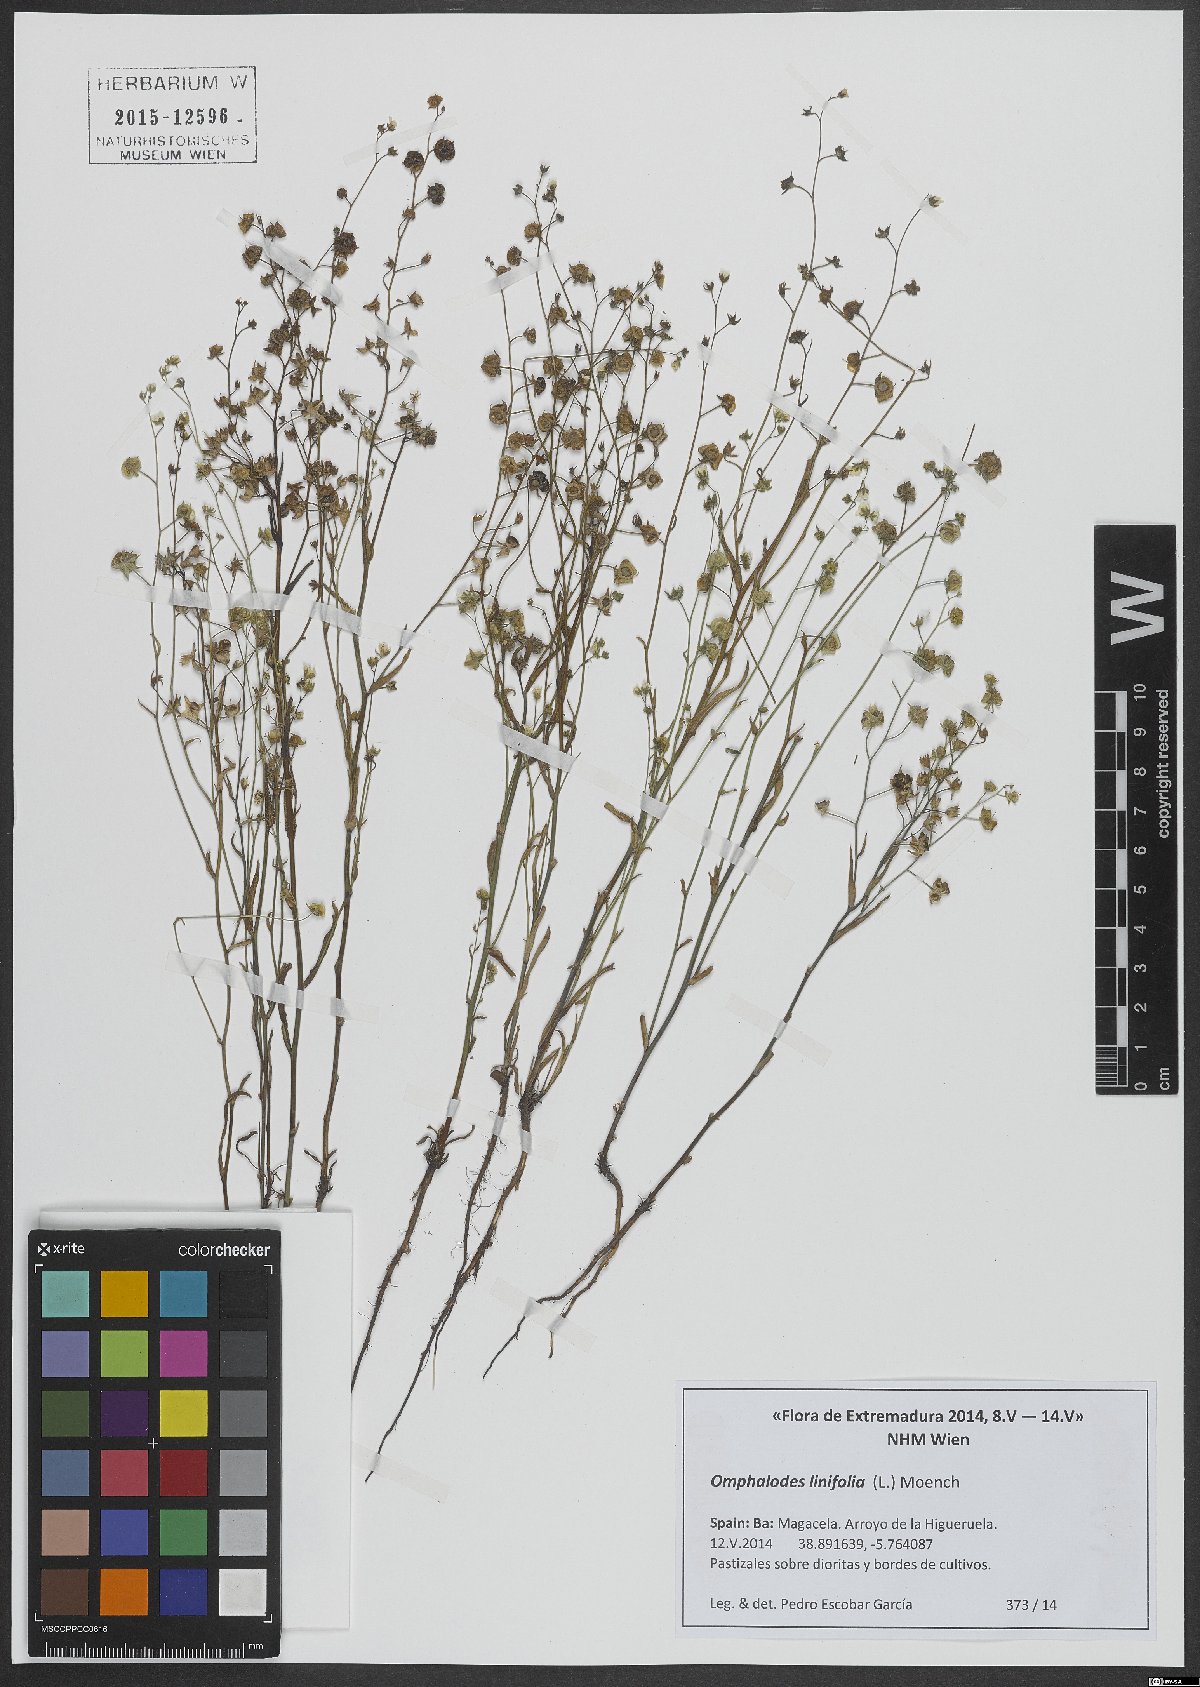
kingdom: Plantae
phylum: Tracheophyta
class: Magnoliopsida
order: Boraginales
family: Boraginaceae
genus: Iberodes
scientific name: Iberodes linifolia
